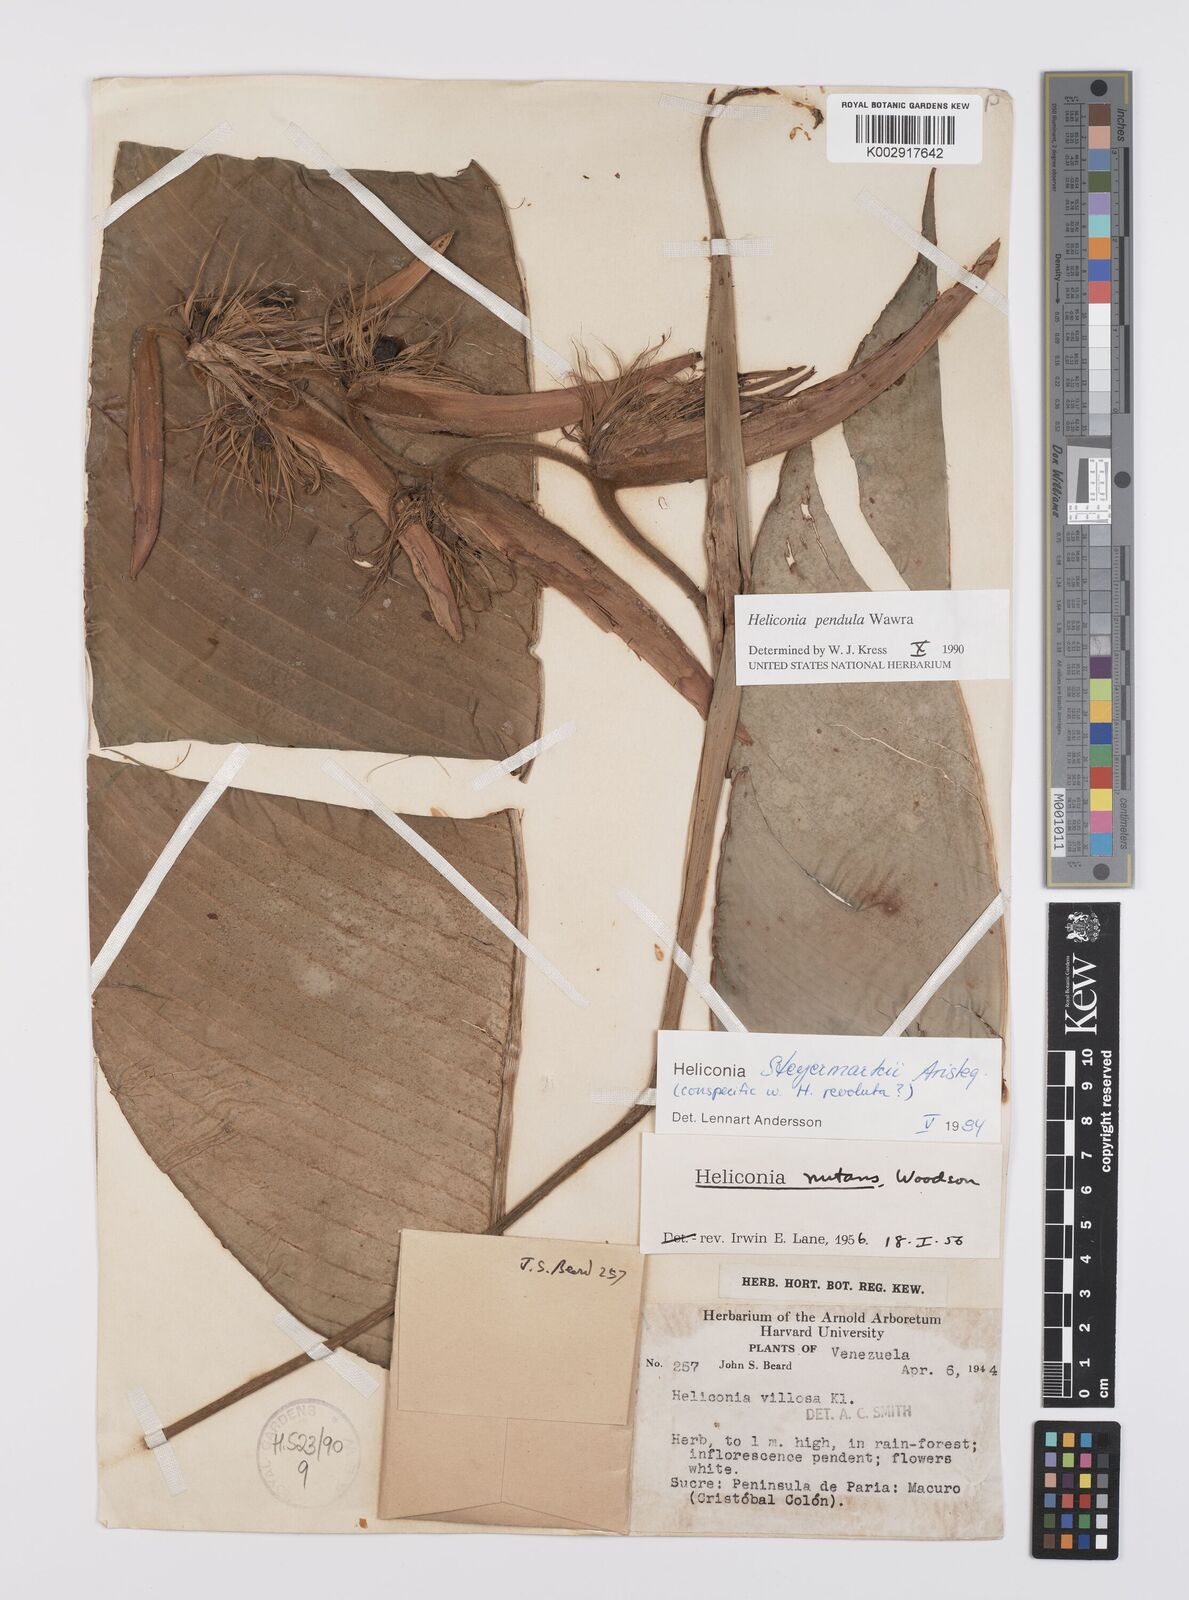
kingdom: Plantae
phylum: Tracheophyta
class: Liliopsida
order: Zingiberales
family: Heliconiaceae
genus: Heliconia
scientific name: Heliconia pendula
